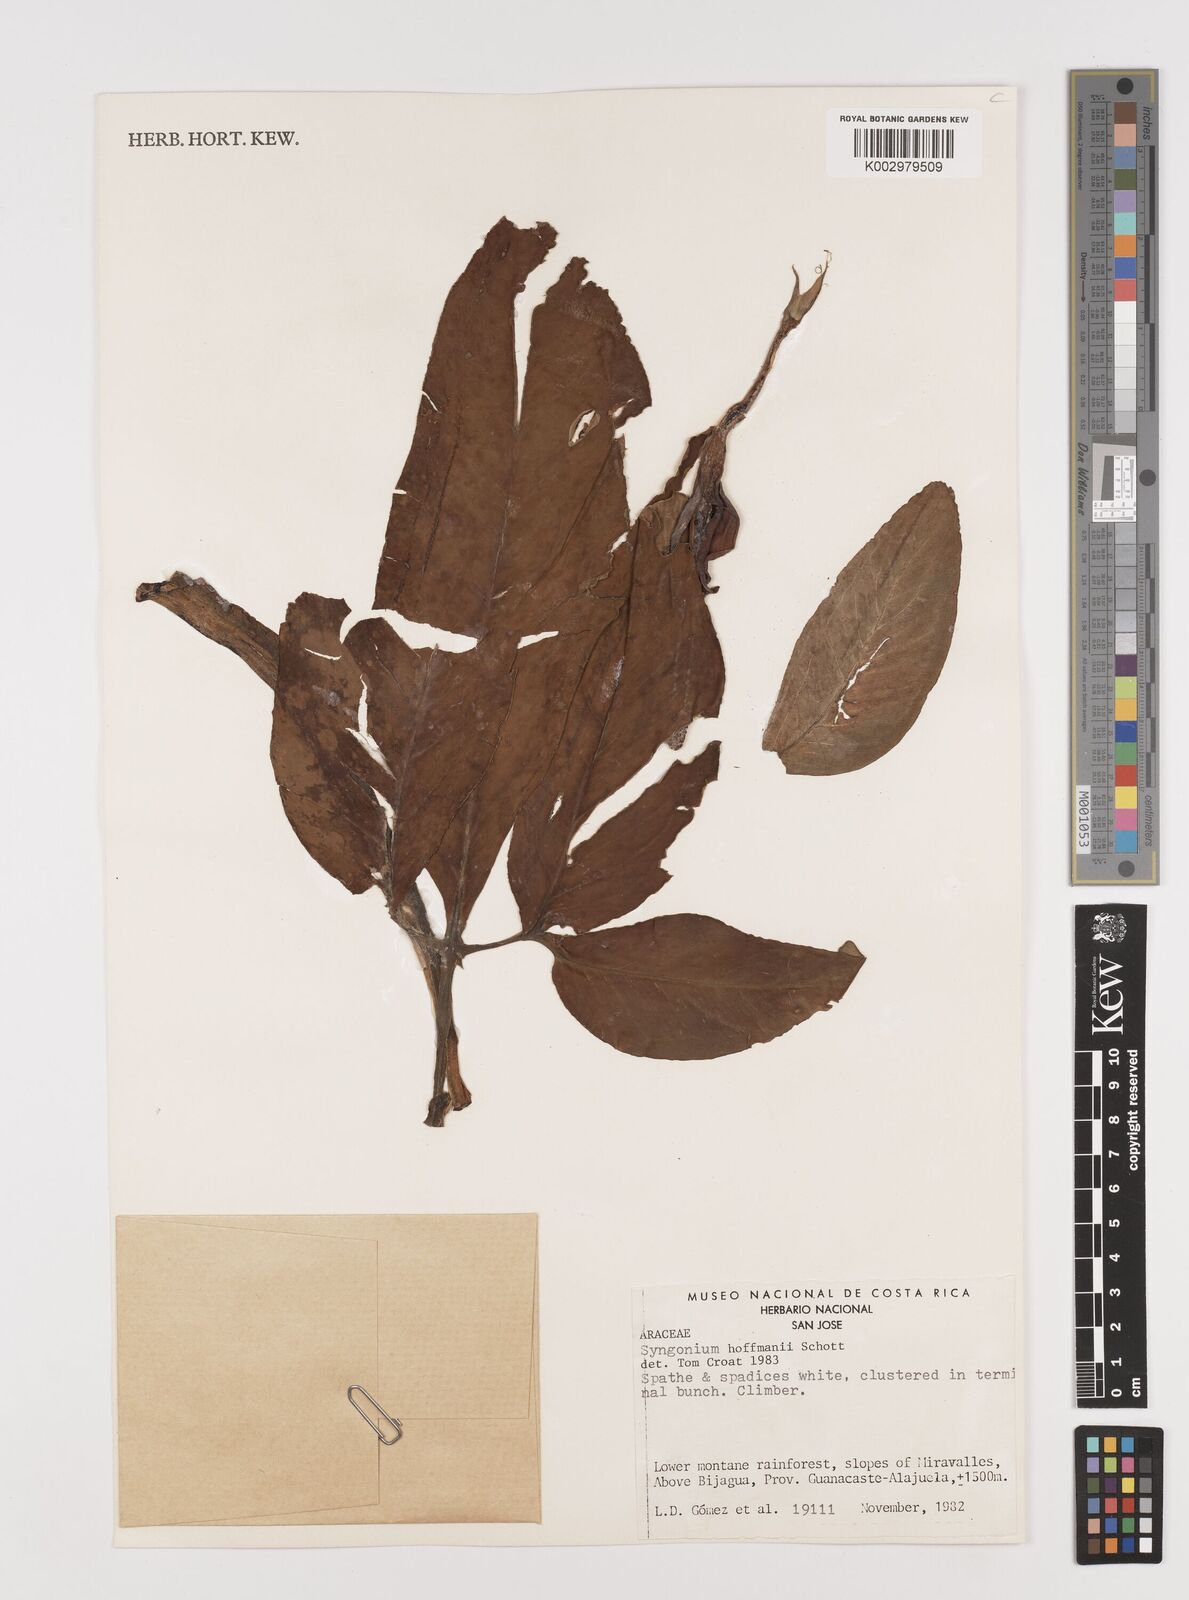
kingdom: Plantae
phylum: Tracheophyta
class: Liliopsida
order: Alismatales
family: Araceae
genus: Syngonium
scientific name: Syngonium hoffmannii
